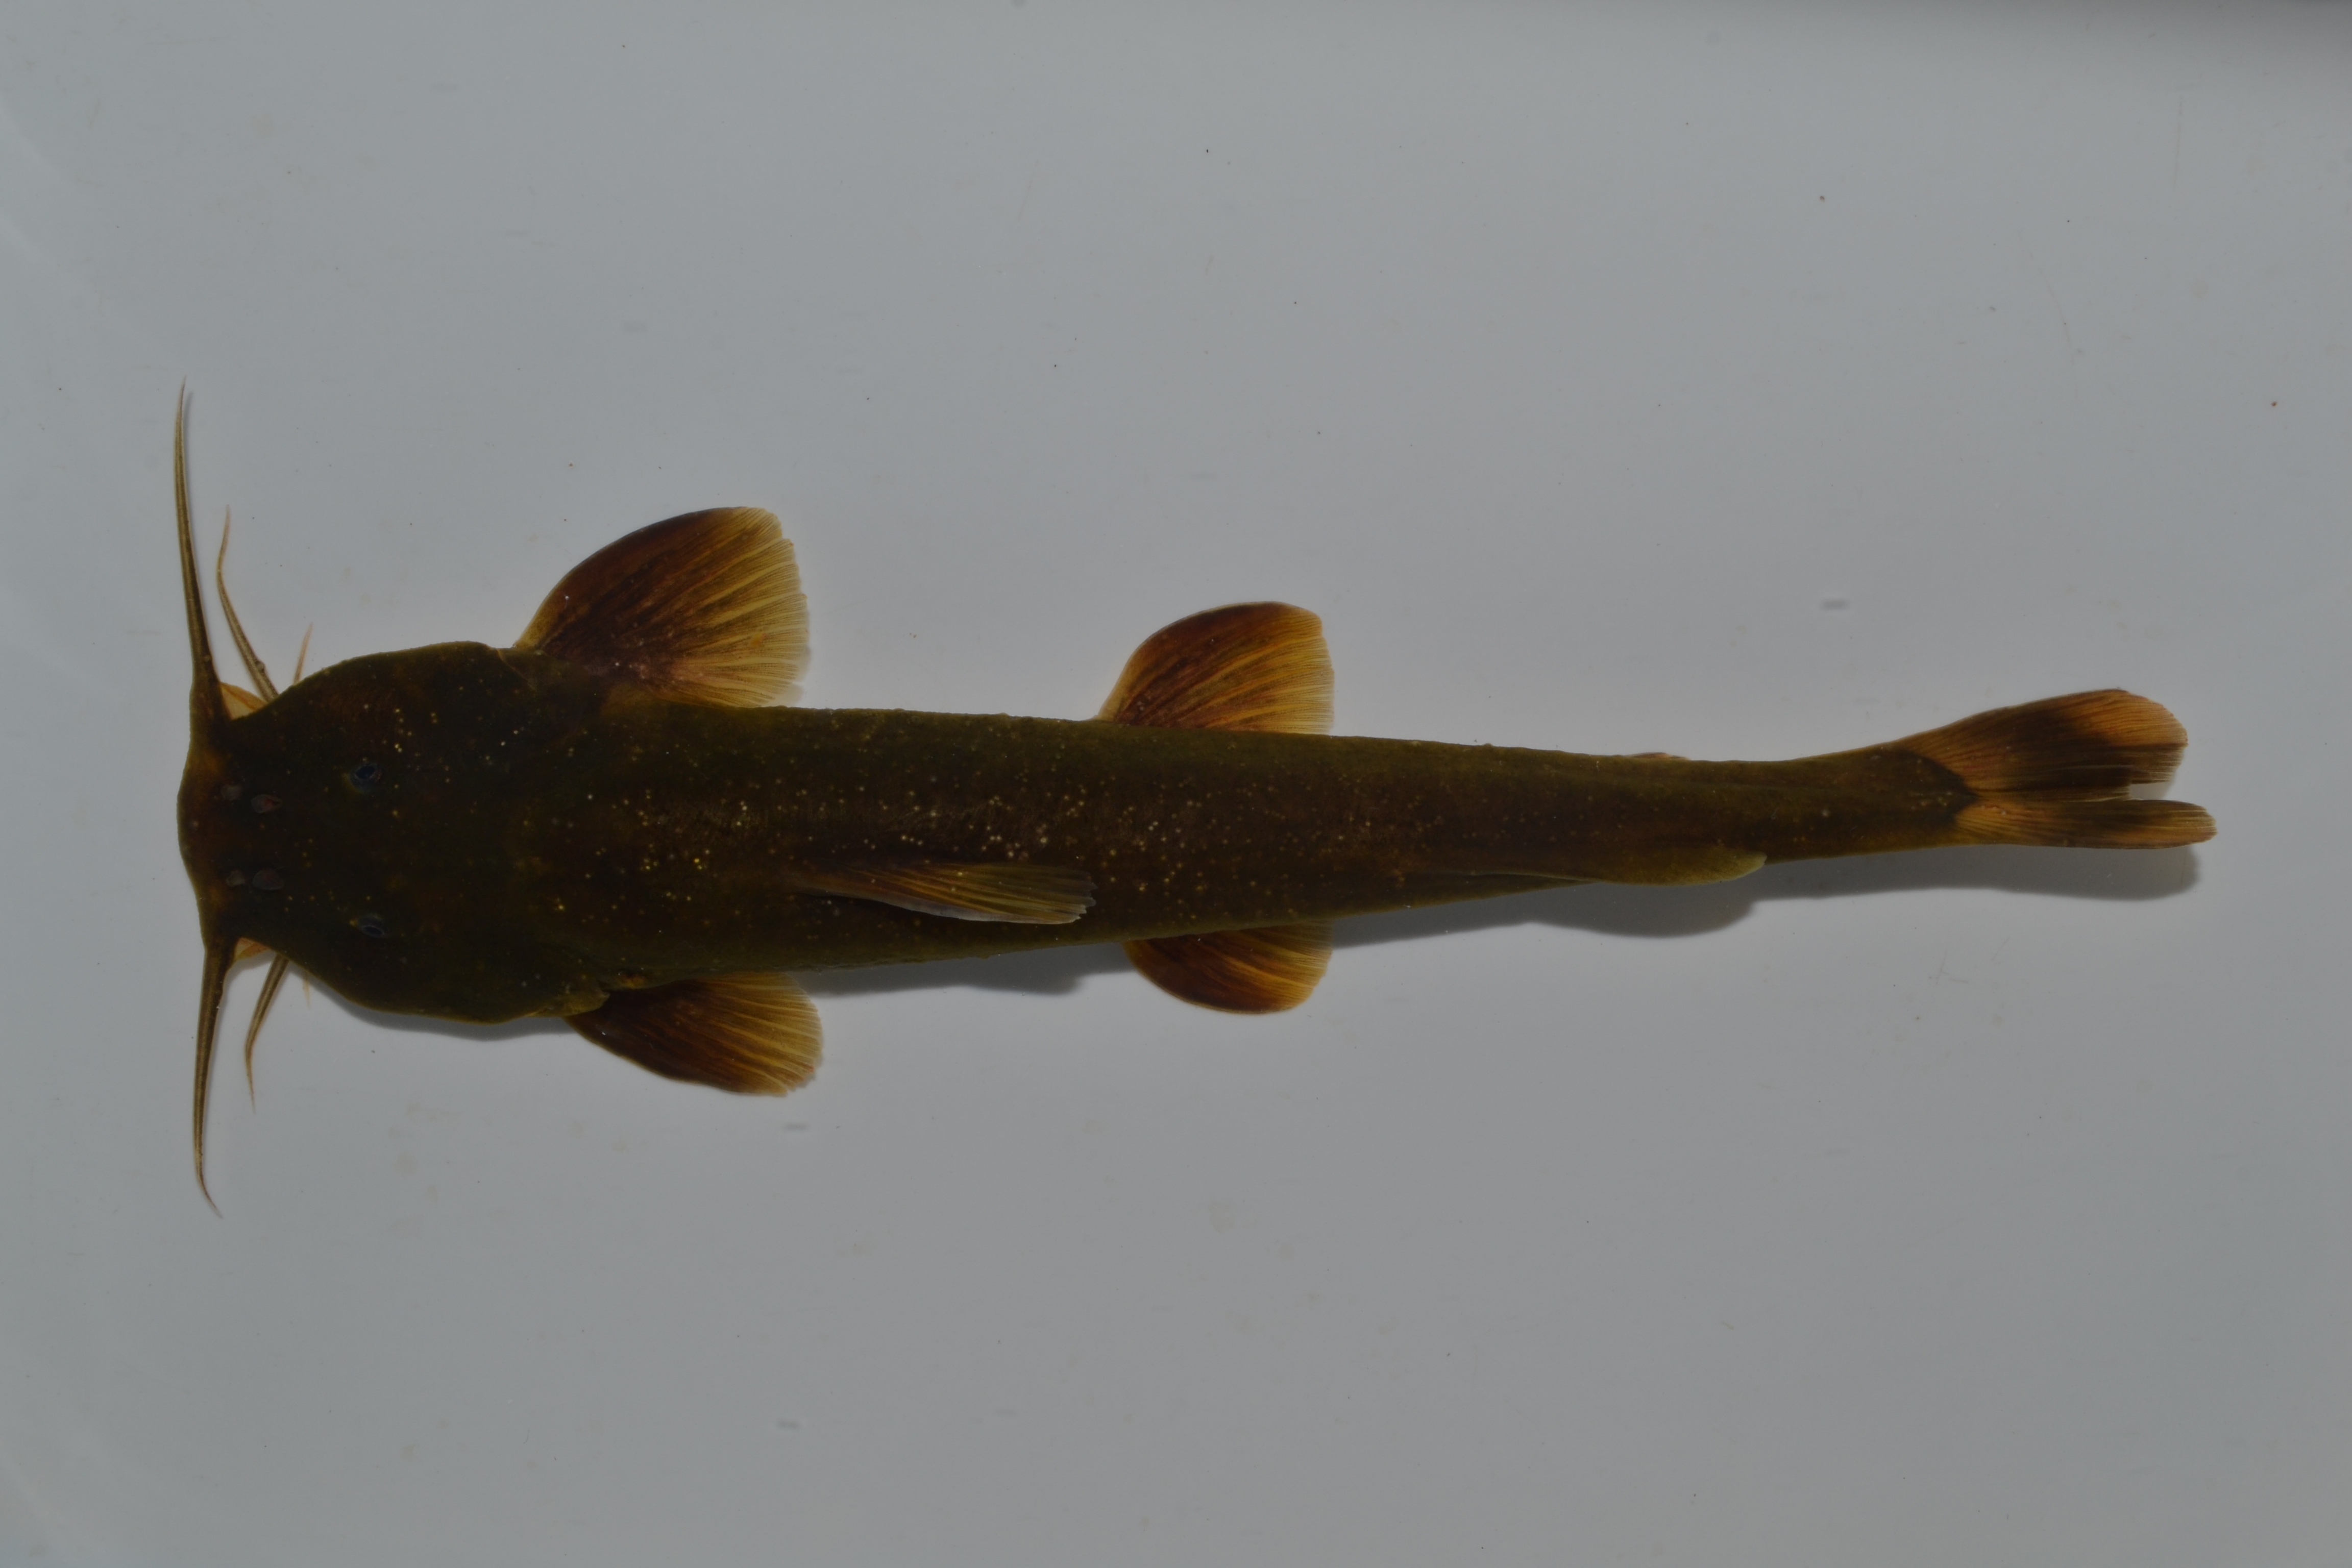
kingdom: Animalia
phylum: Chordata
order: Siluriformes
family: Amphiliidae
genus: Amphilius
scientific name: Amphilius uranoscopus
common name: Stargazer mountain catfish
